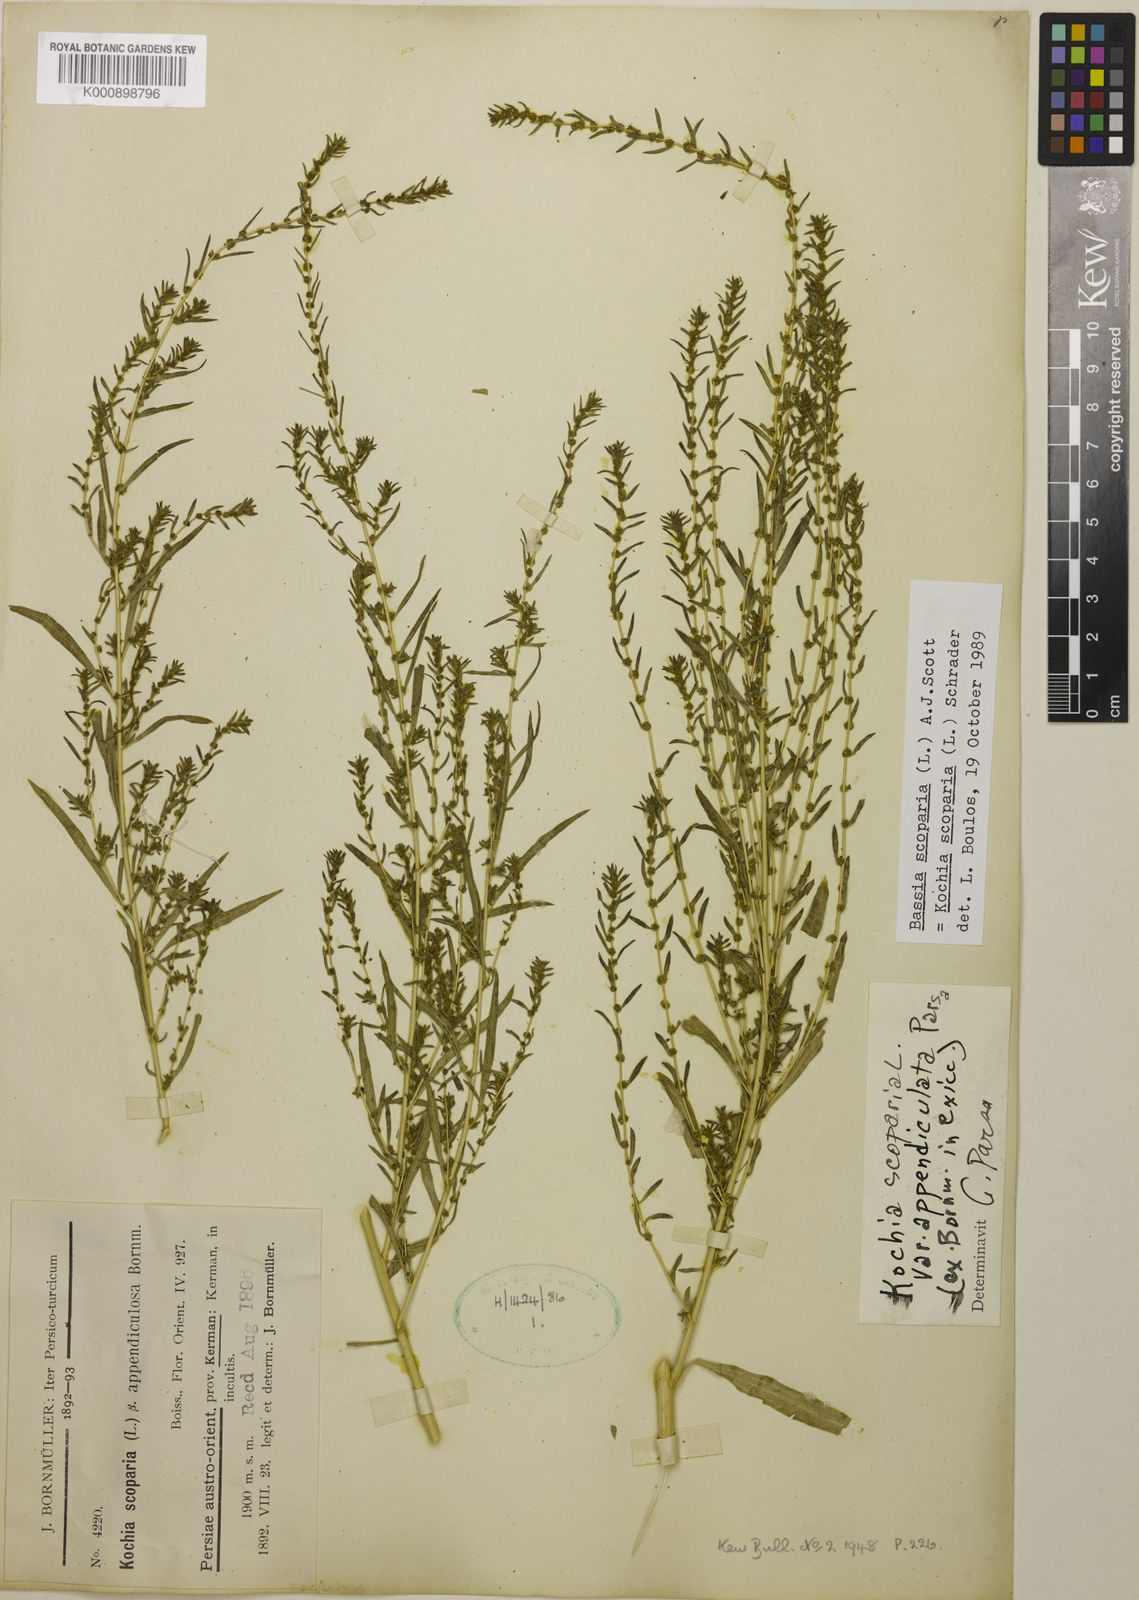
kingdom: Plantae
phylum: Tracheophyta
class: Magnoliopsida
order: Caryophyllales
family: Amaranthaceae
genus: Bassia
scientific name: Bassia scoparia
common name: Belvedere
